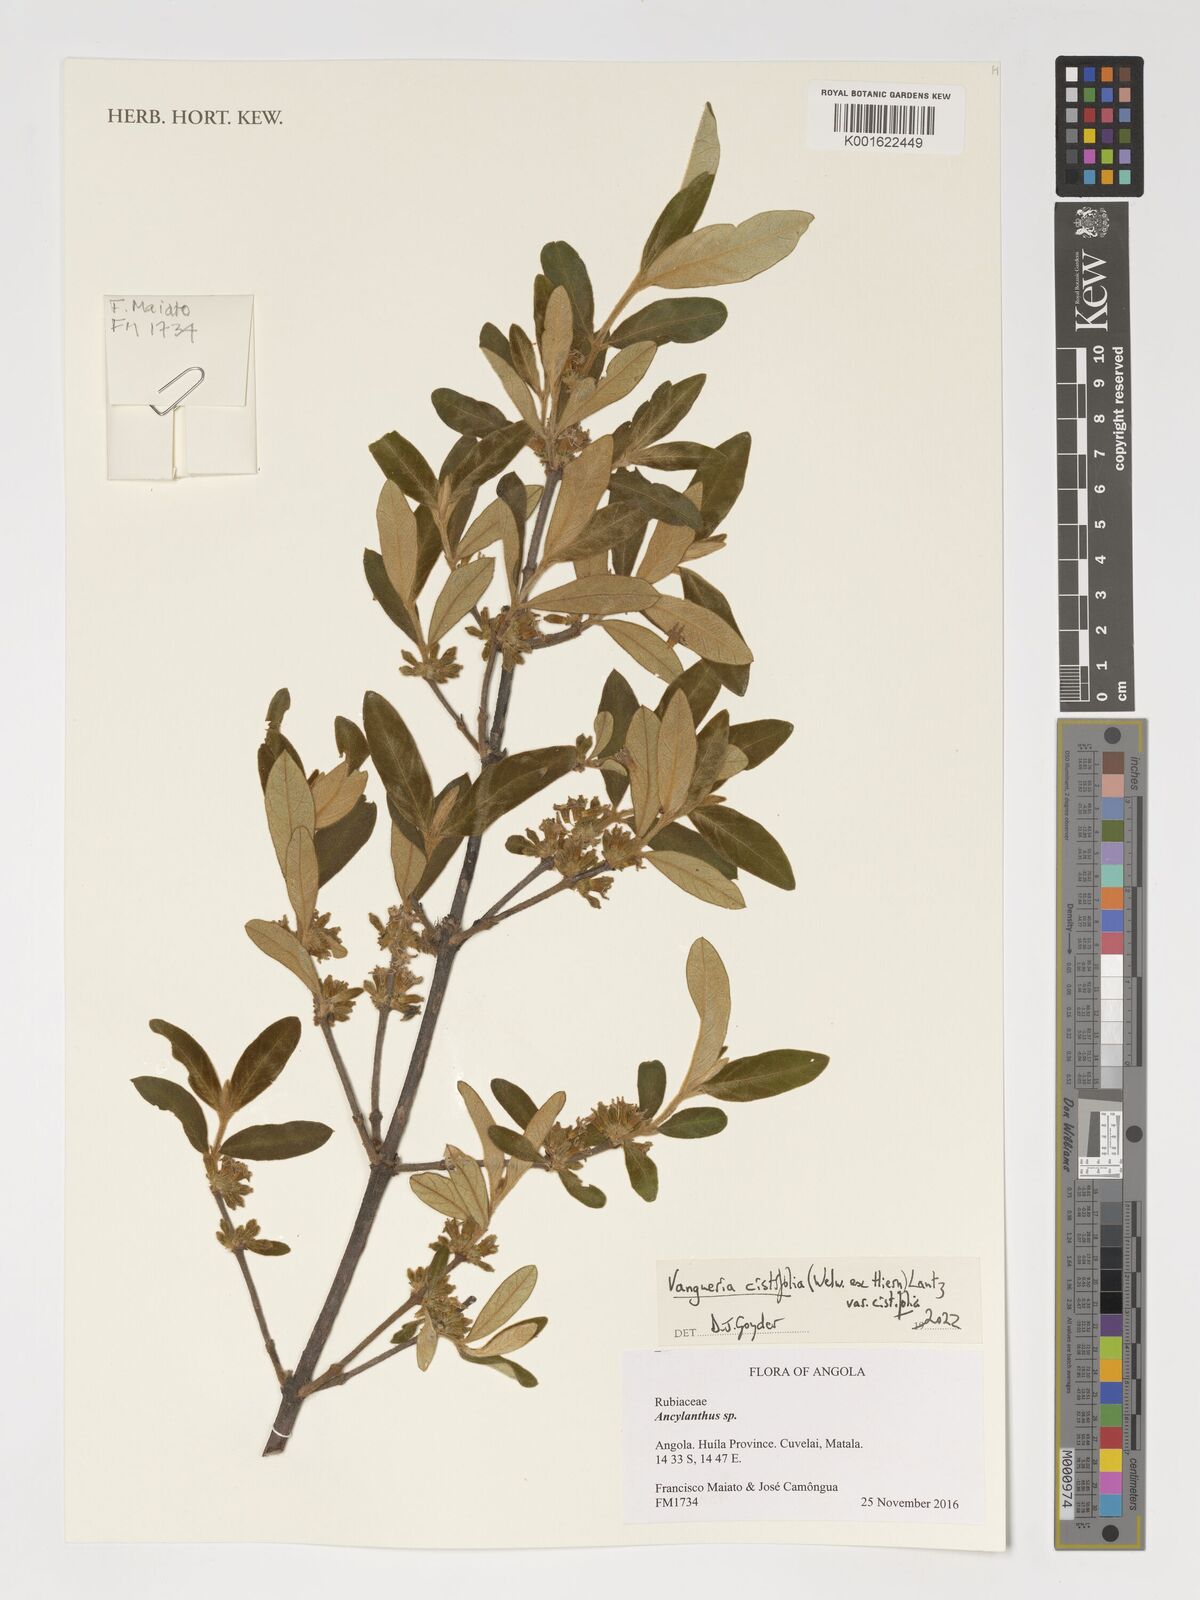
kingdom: Plantae
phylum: Tracheophyta
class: Magnoliopsida
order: Gentianales
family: Rubiaceae
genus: Vangueria
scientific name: Vangueria cistifolia
